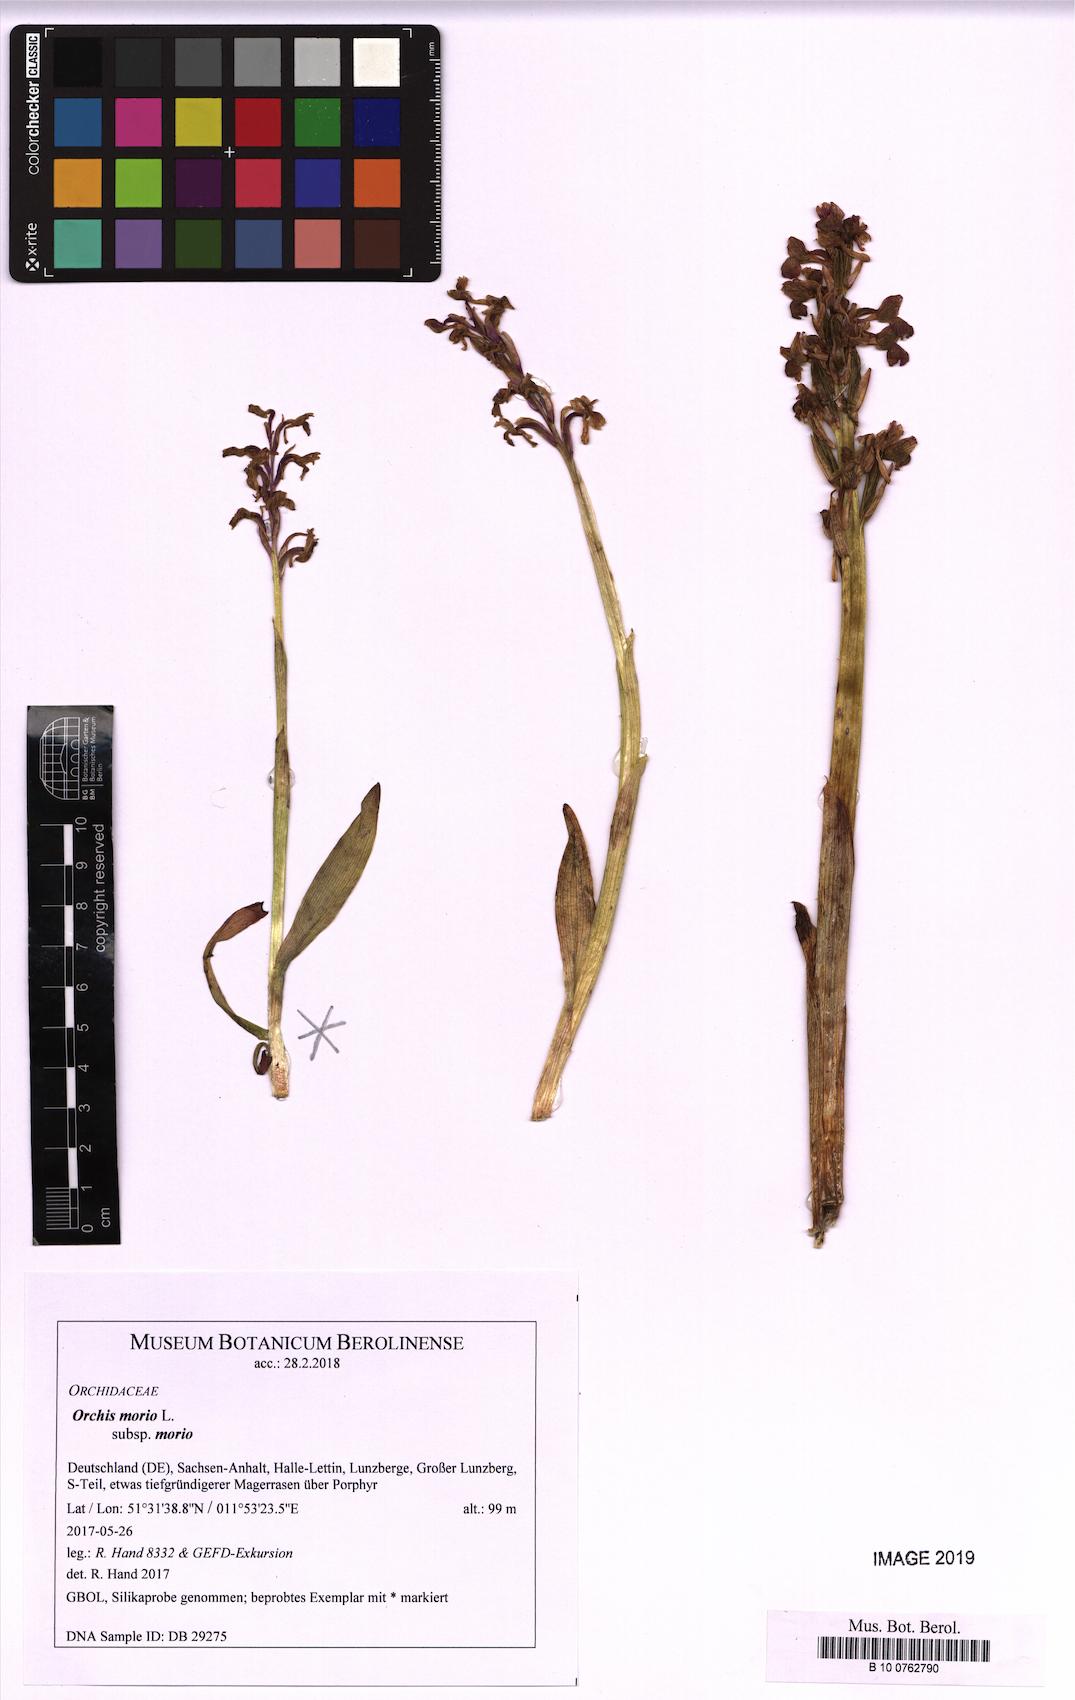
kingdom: Plantae
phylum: Tracheophyta
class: Liliopsida
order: Asparagales
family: Orchidaceae
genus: Anacamptis
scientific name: Anacamptis morio
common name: Green-winged orchid
